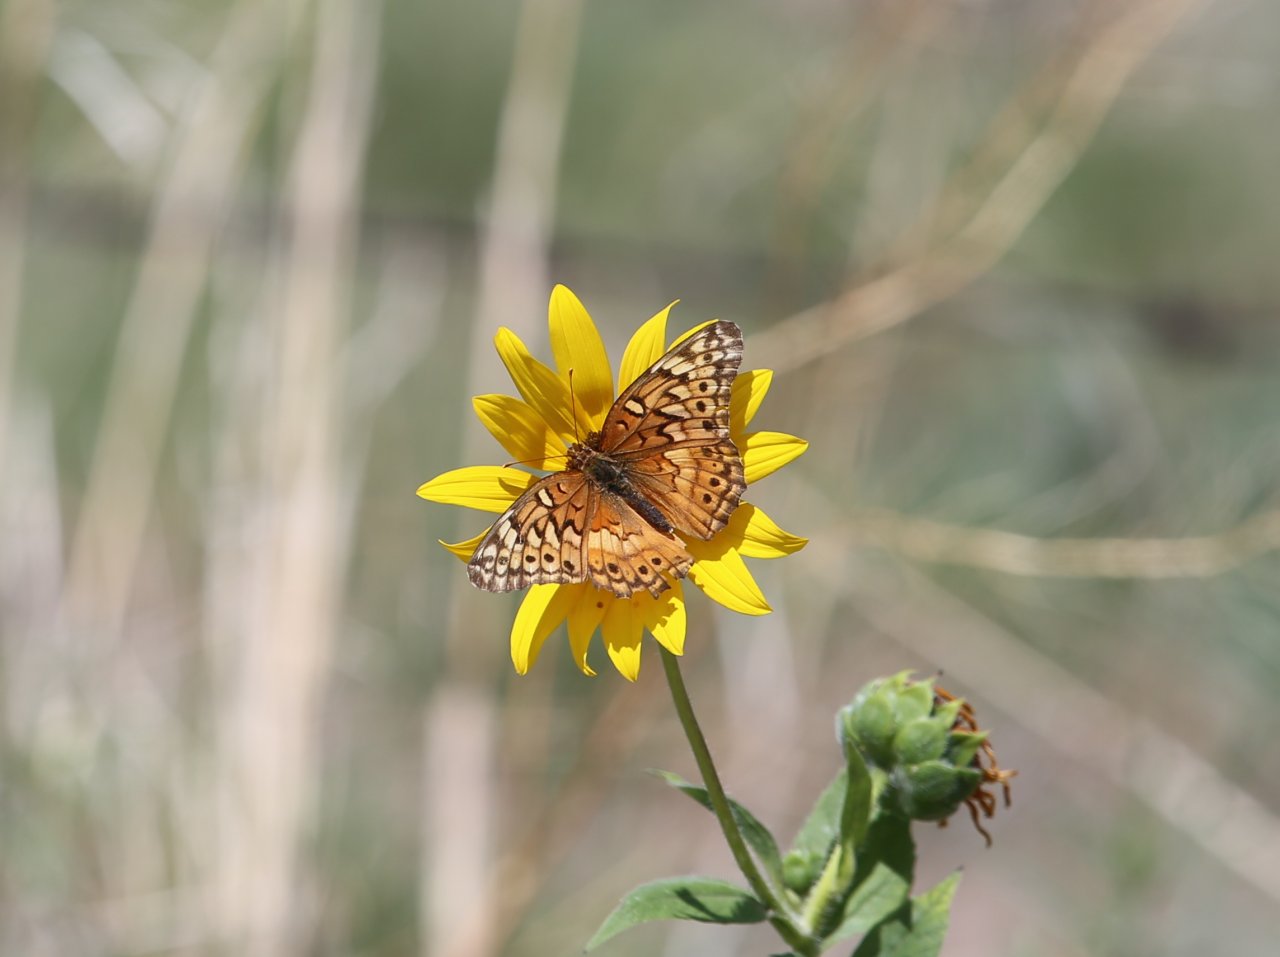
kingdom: Animalia
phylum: Arthropoda
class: Insecta
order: Lepidoptera
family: Nymphalidae
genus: Euptoieta
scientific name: Euptoieta claudia
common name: Variegated Fritillary
